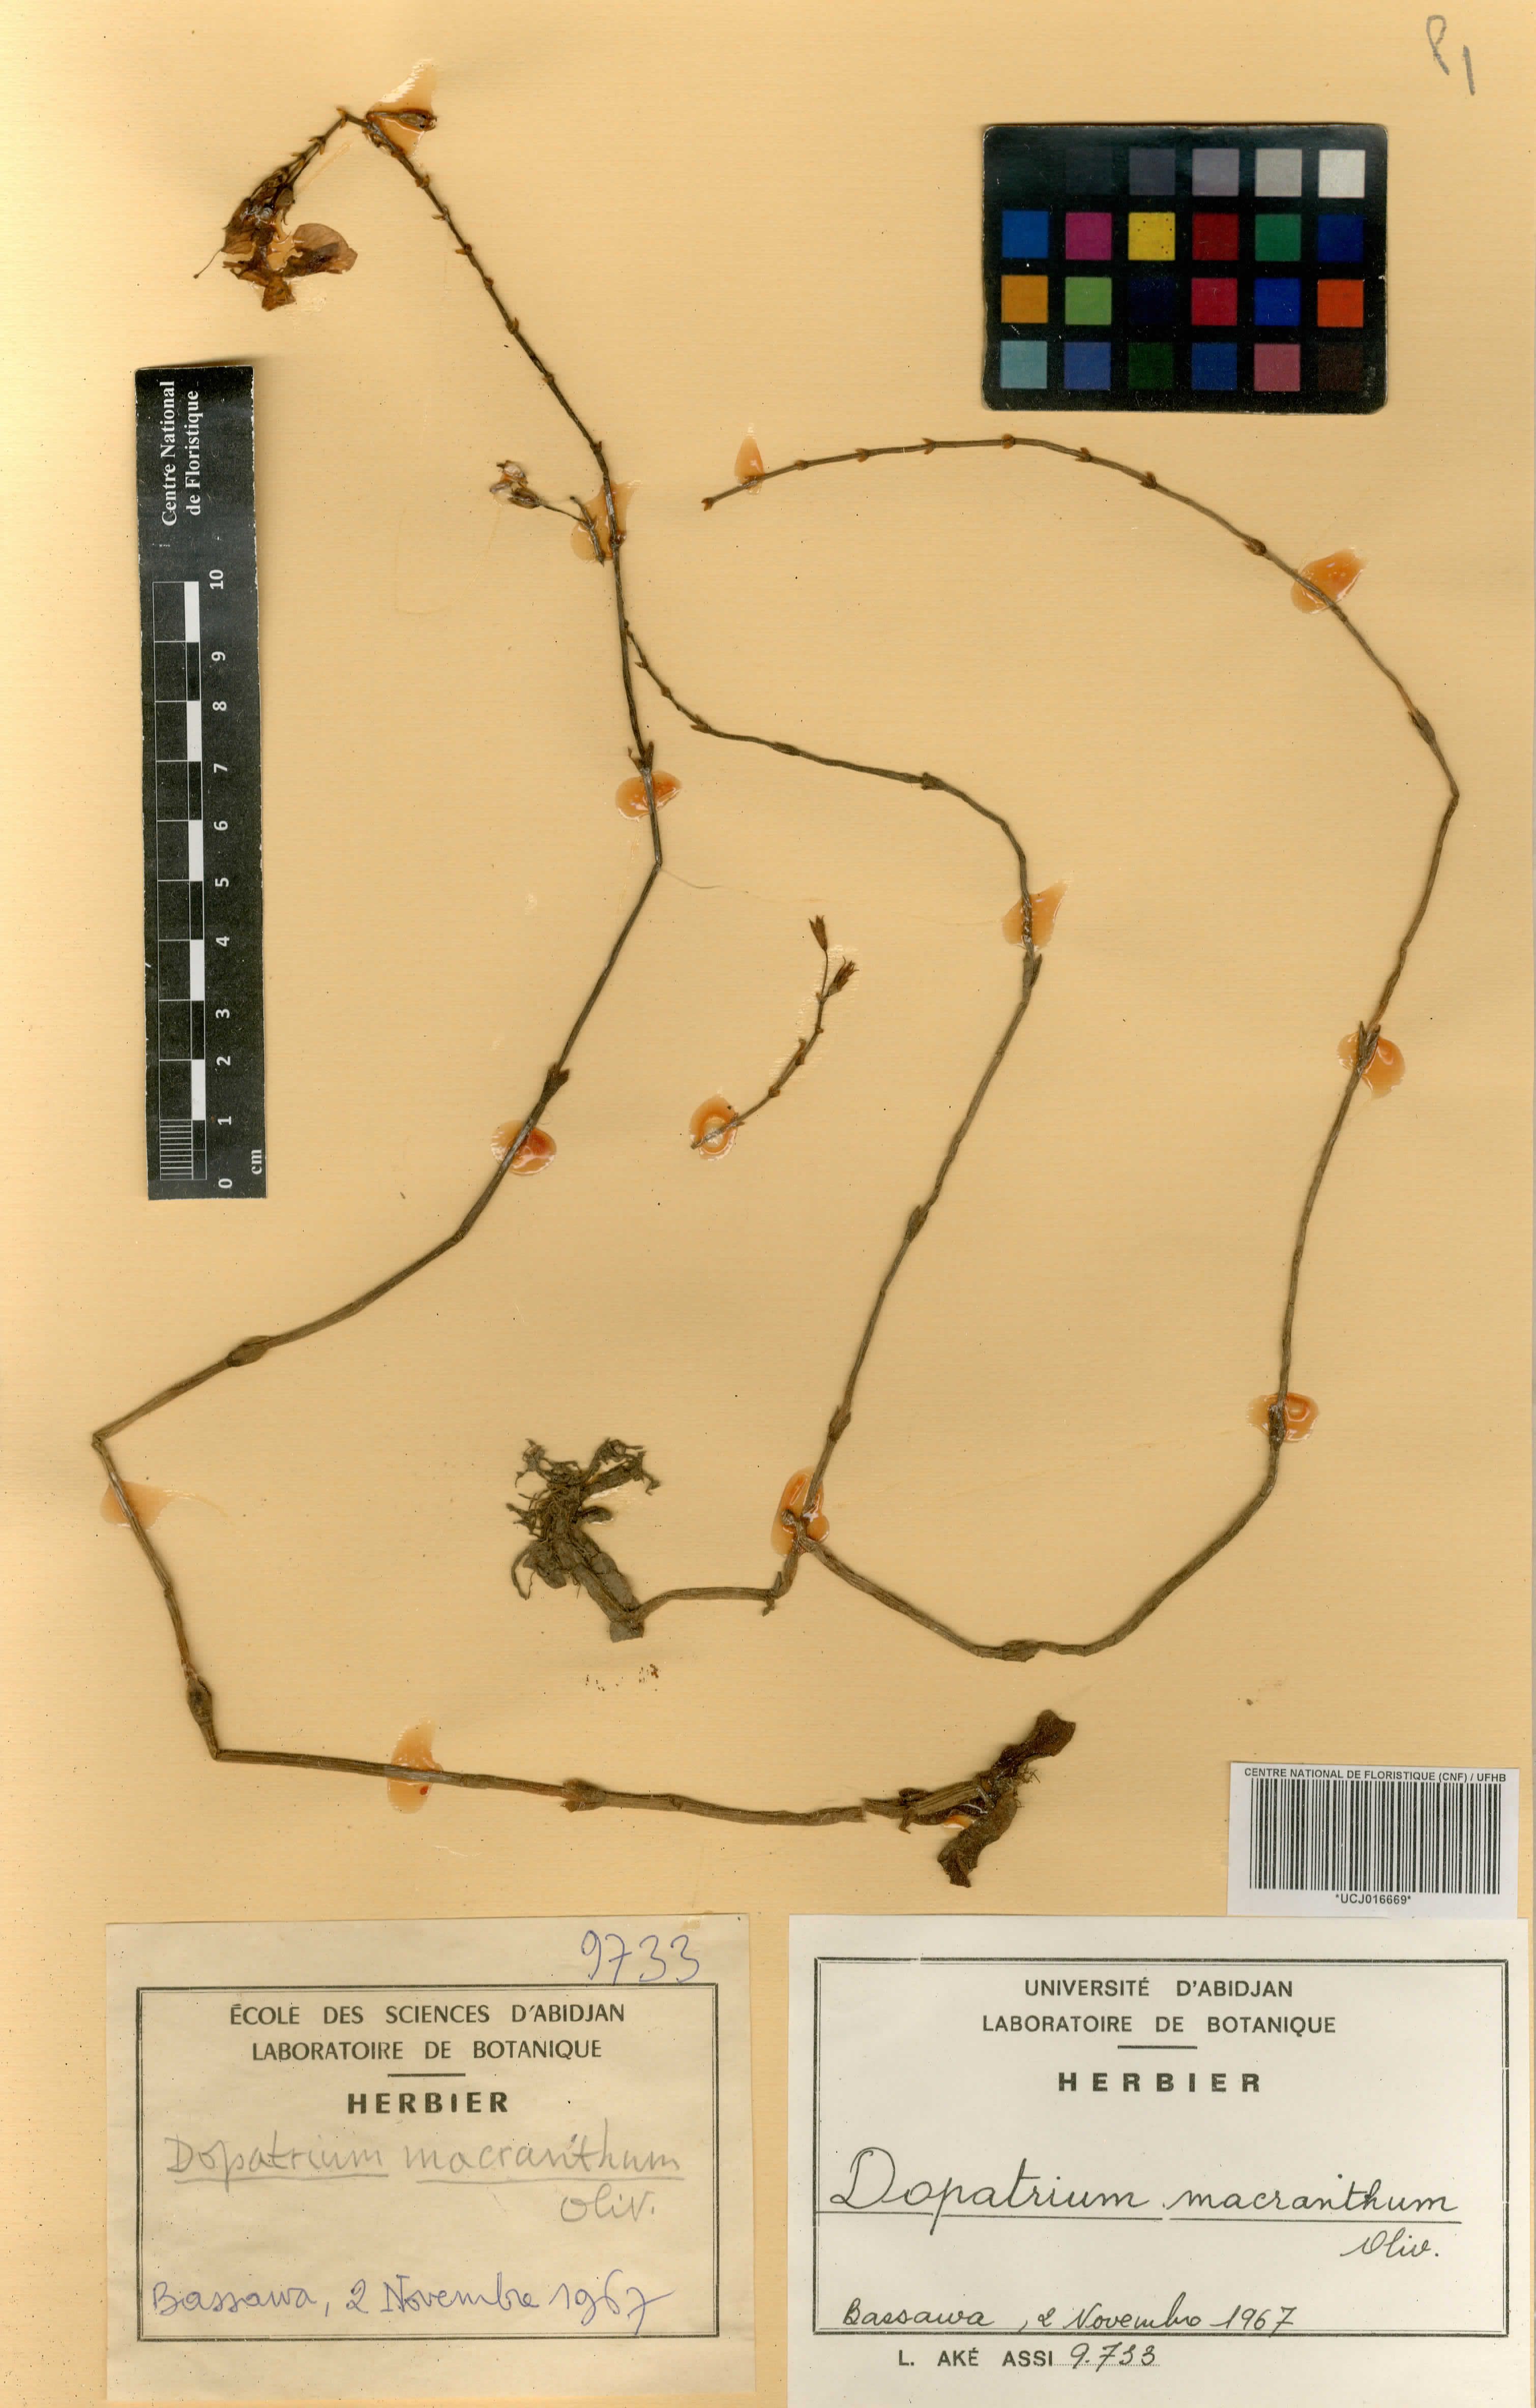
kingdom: Plantae
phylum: Tracheophyta
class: Magnoliopsida
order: Lamiales
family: Plantaginaceae
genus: Dopatrium
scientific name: Dopatrium macranthum
